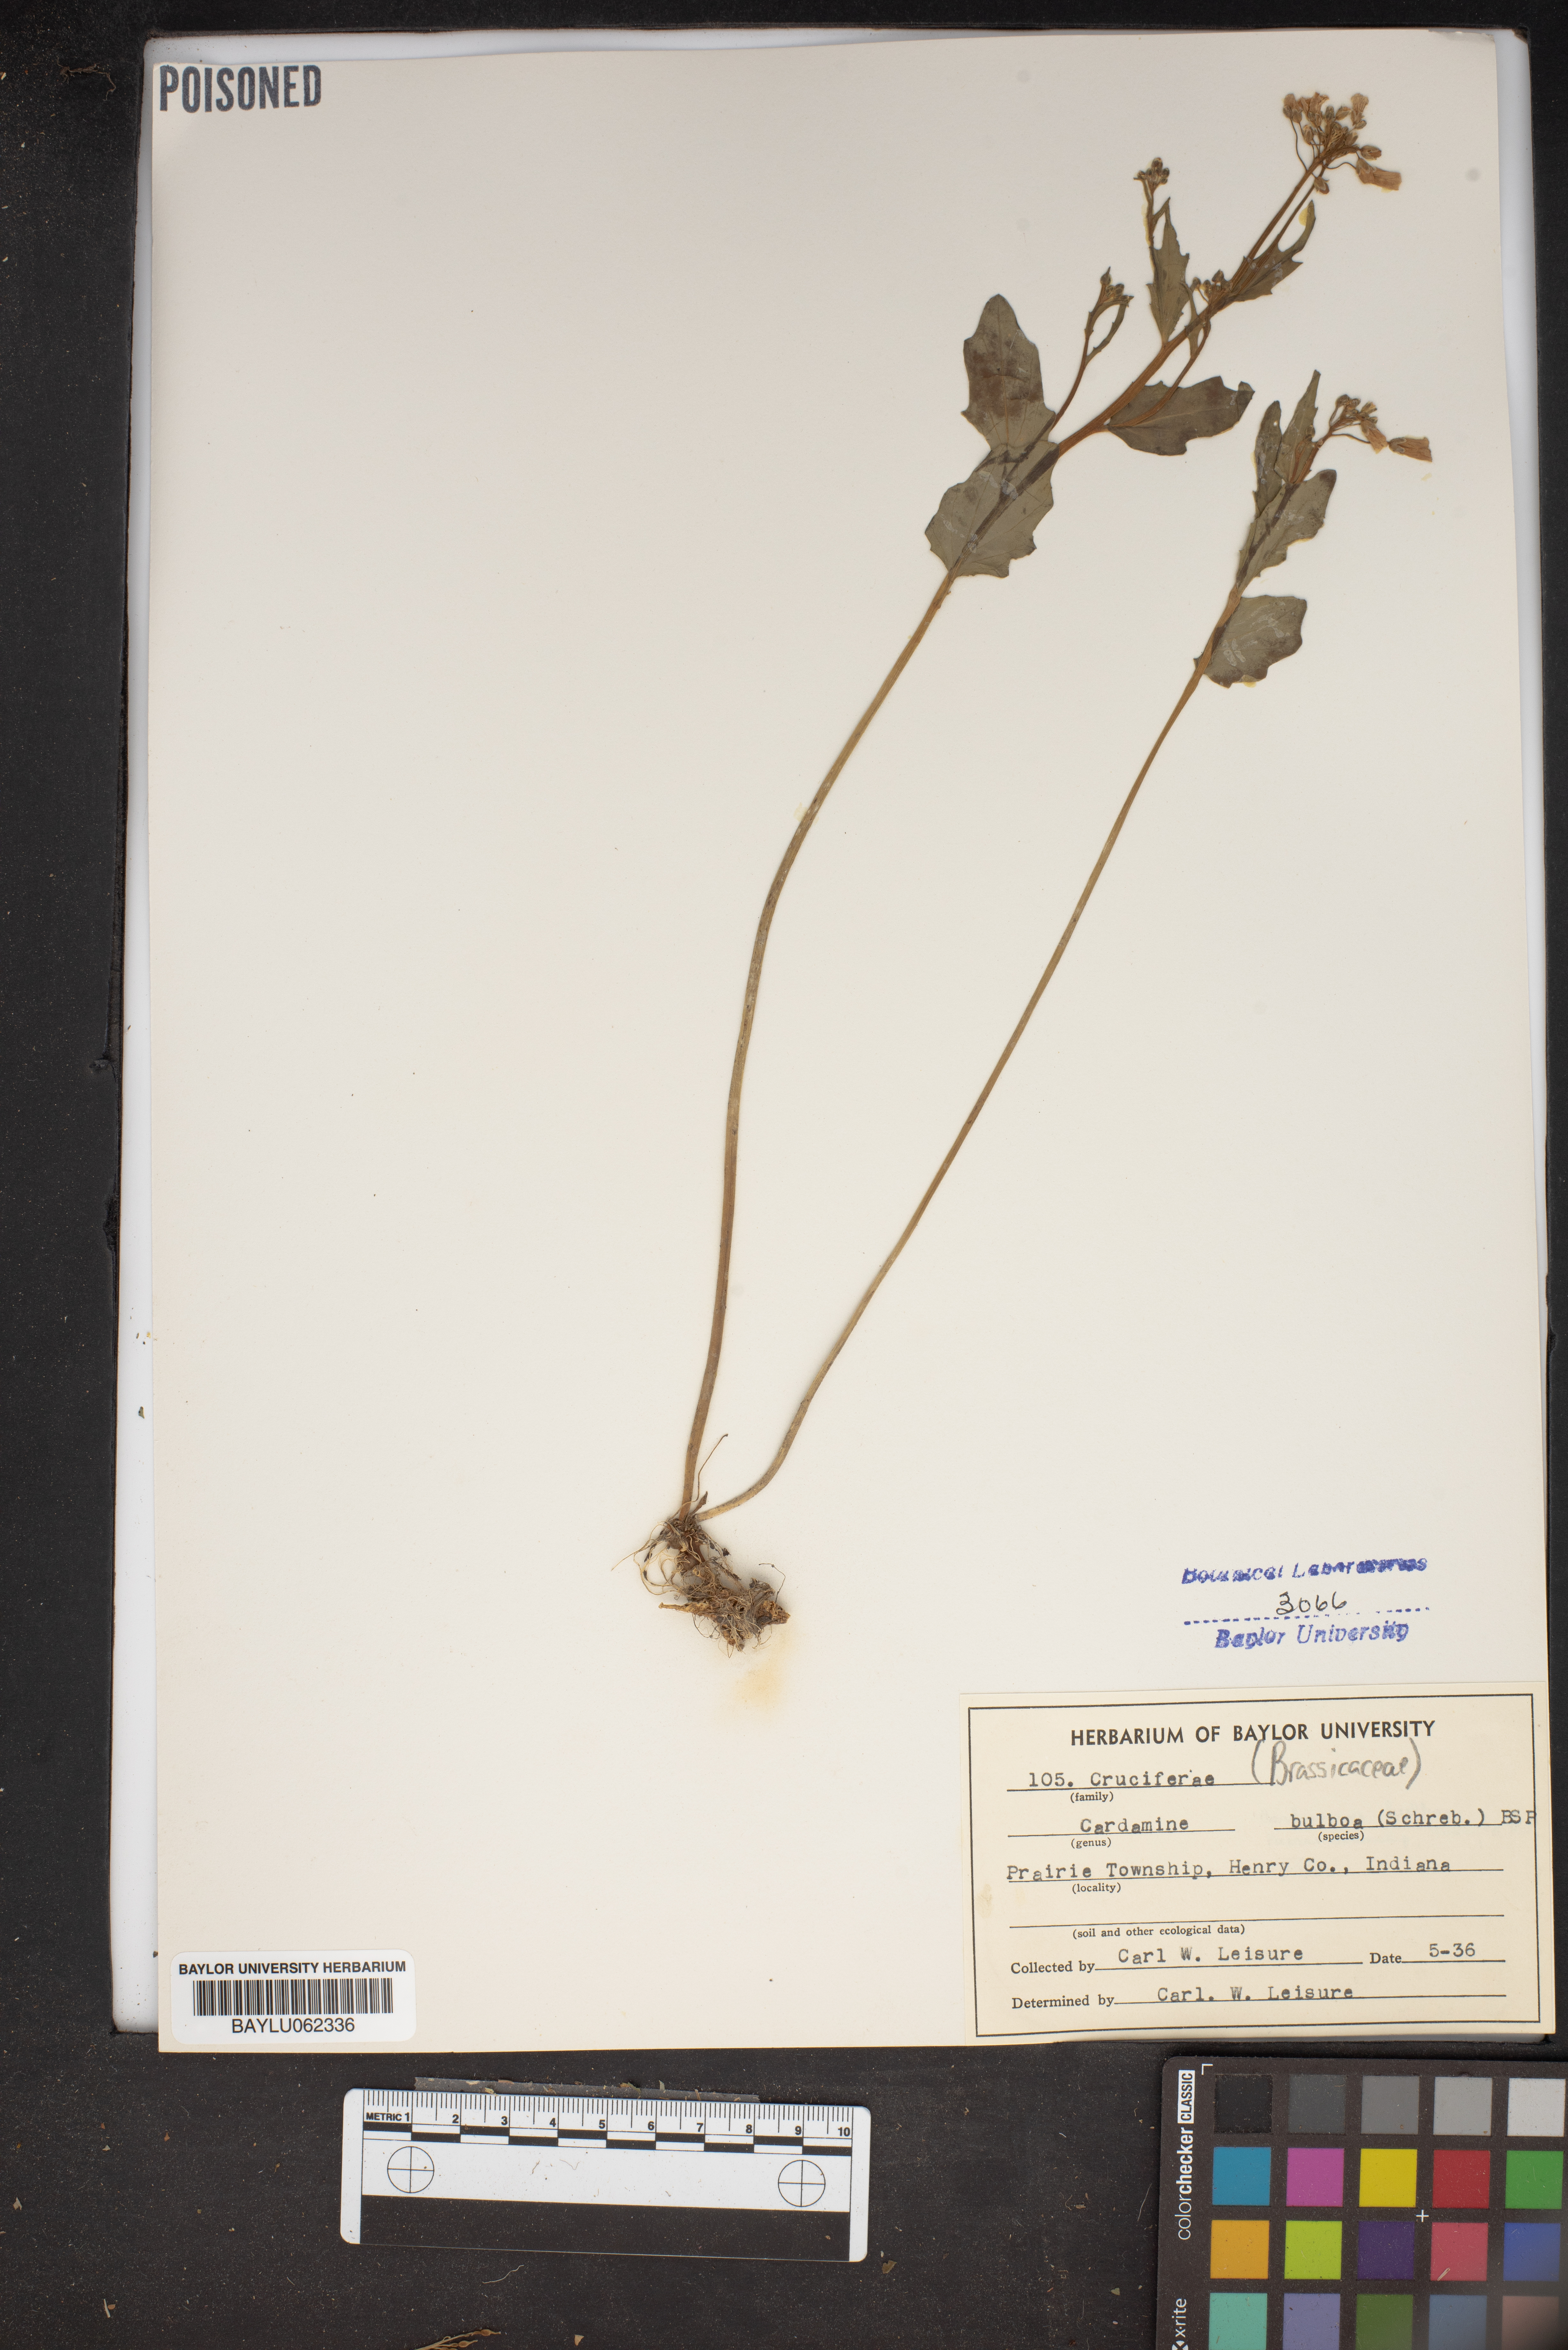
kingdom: Plantae
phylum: Tracheophyta
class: Magnoliopsida
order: Brassicales
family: Brassicaceae
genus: Cardamine
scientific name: Cardamine bulbosa
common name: Spring cress
